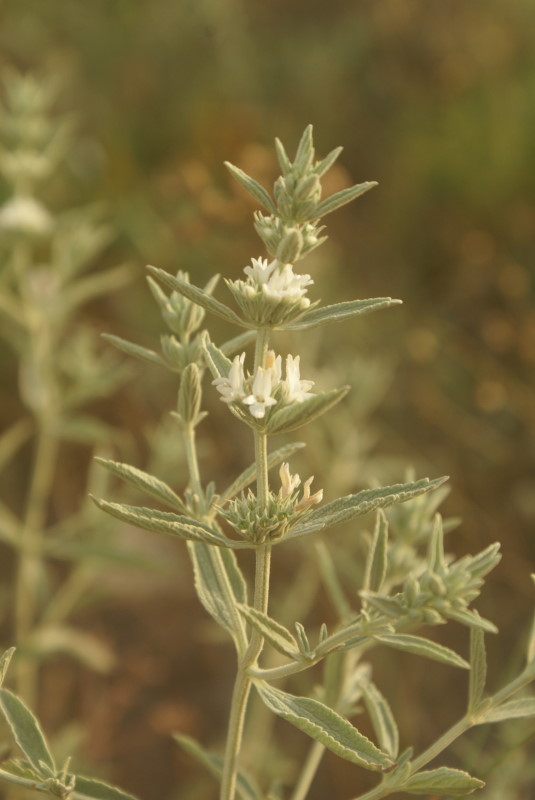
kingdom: Plantae
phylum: Tracheophyta
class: Magnoliopsida
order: Lamiales
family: Lamiaceae
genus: Marrubium
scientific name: Marrubium peregrinum
